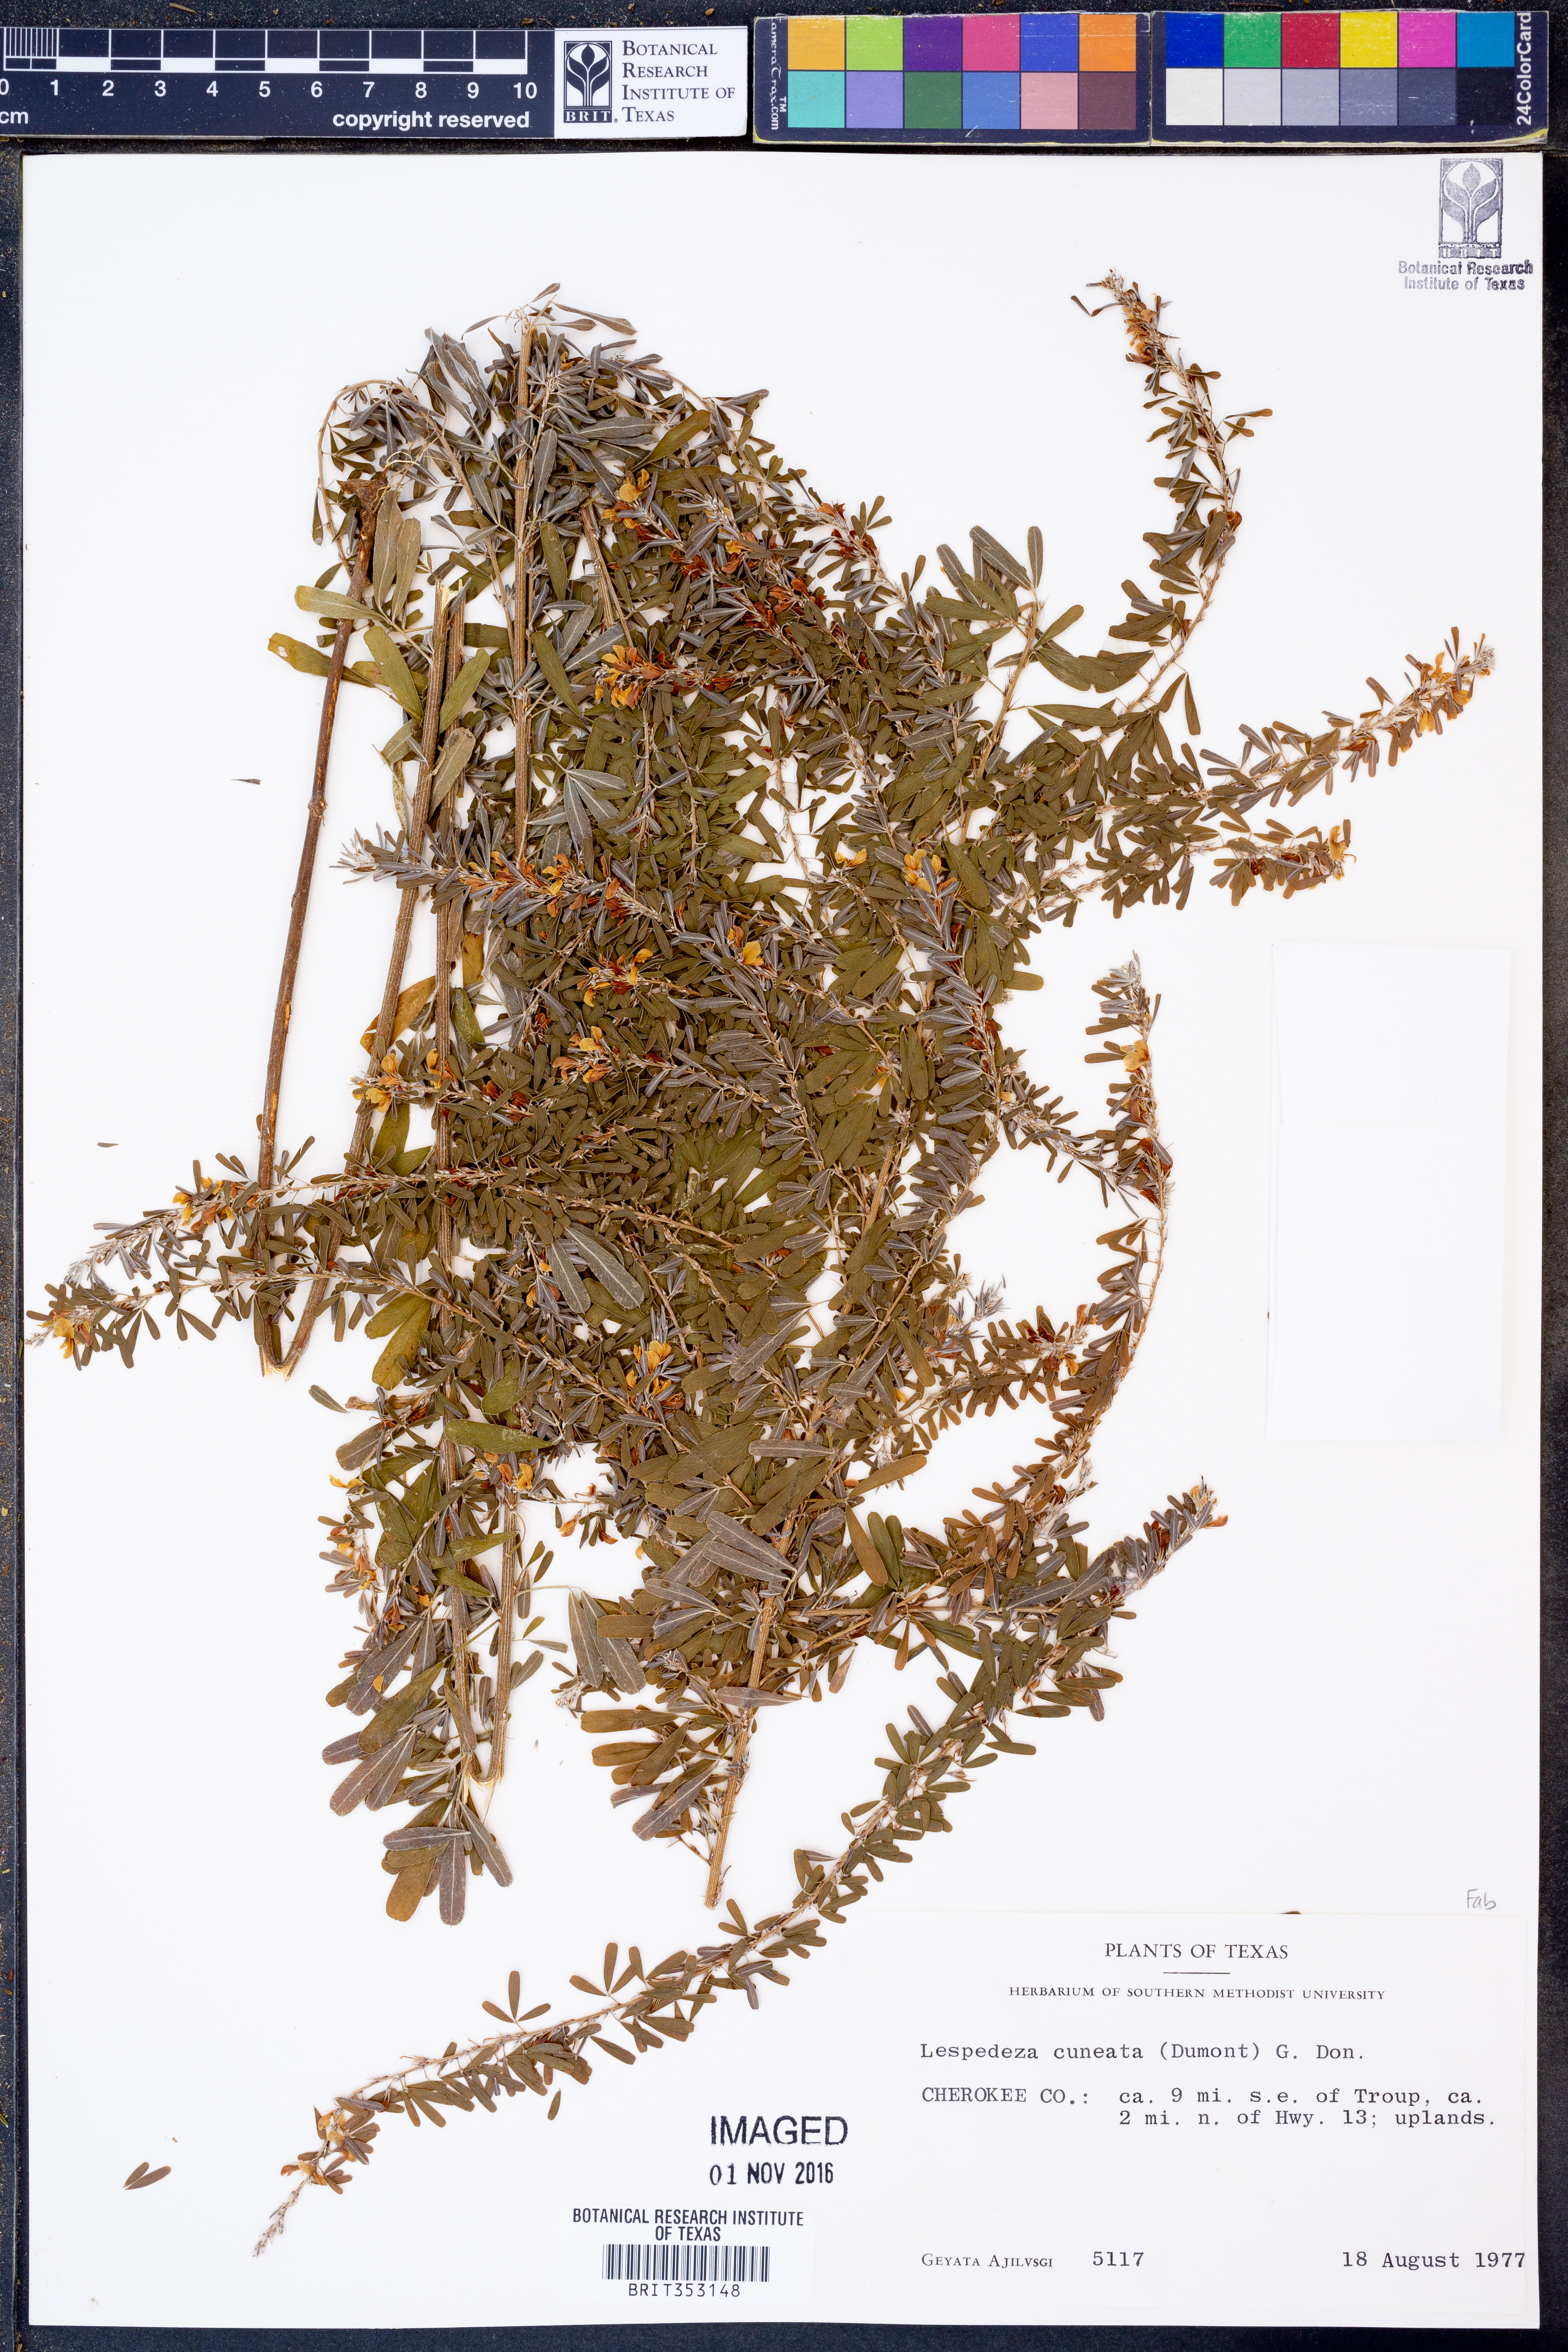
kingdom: Plantae
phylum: Tracheophyta
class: Magnoliopsida
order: Fabales
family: Fabaceae
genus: Lespedeza
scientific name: Lespedeza cuneata
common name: Chinese bush-clover
